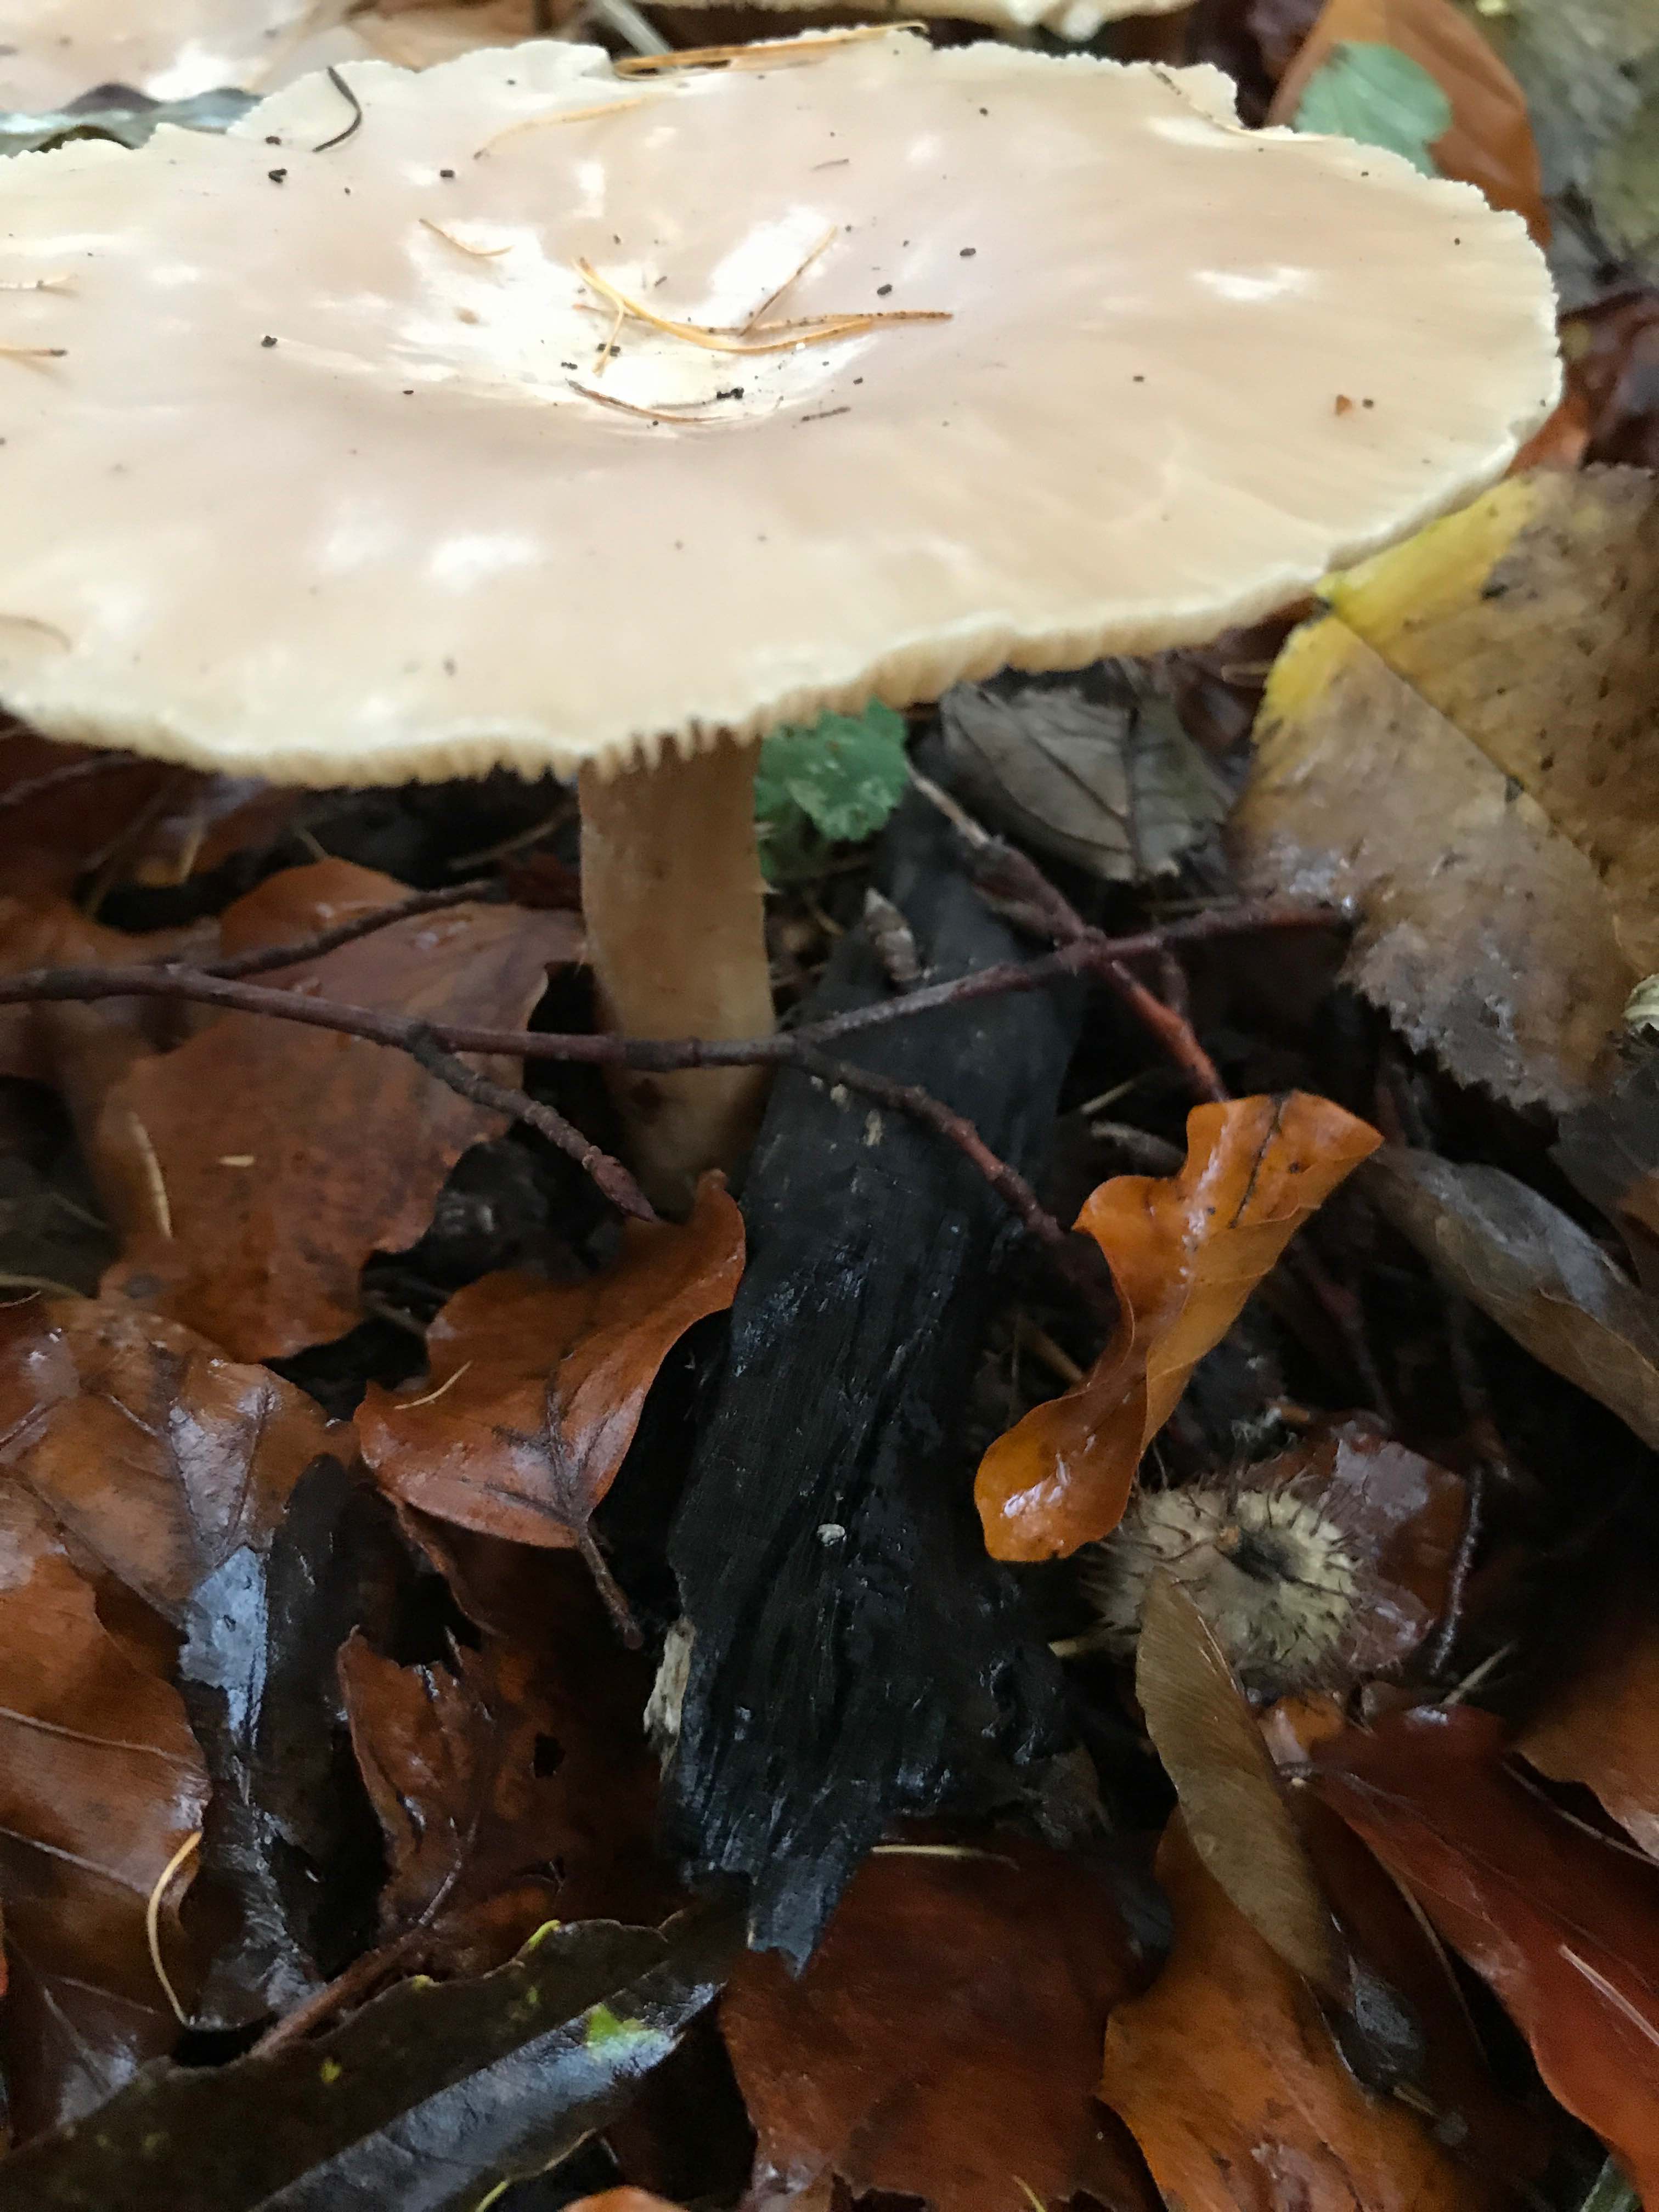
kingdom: Fungi
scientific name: Fungi
